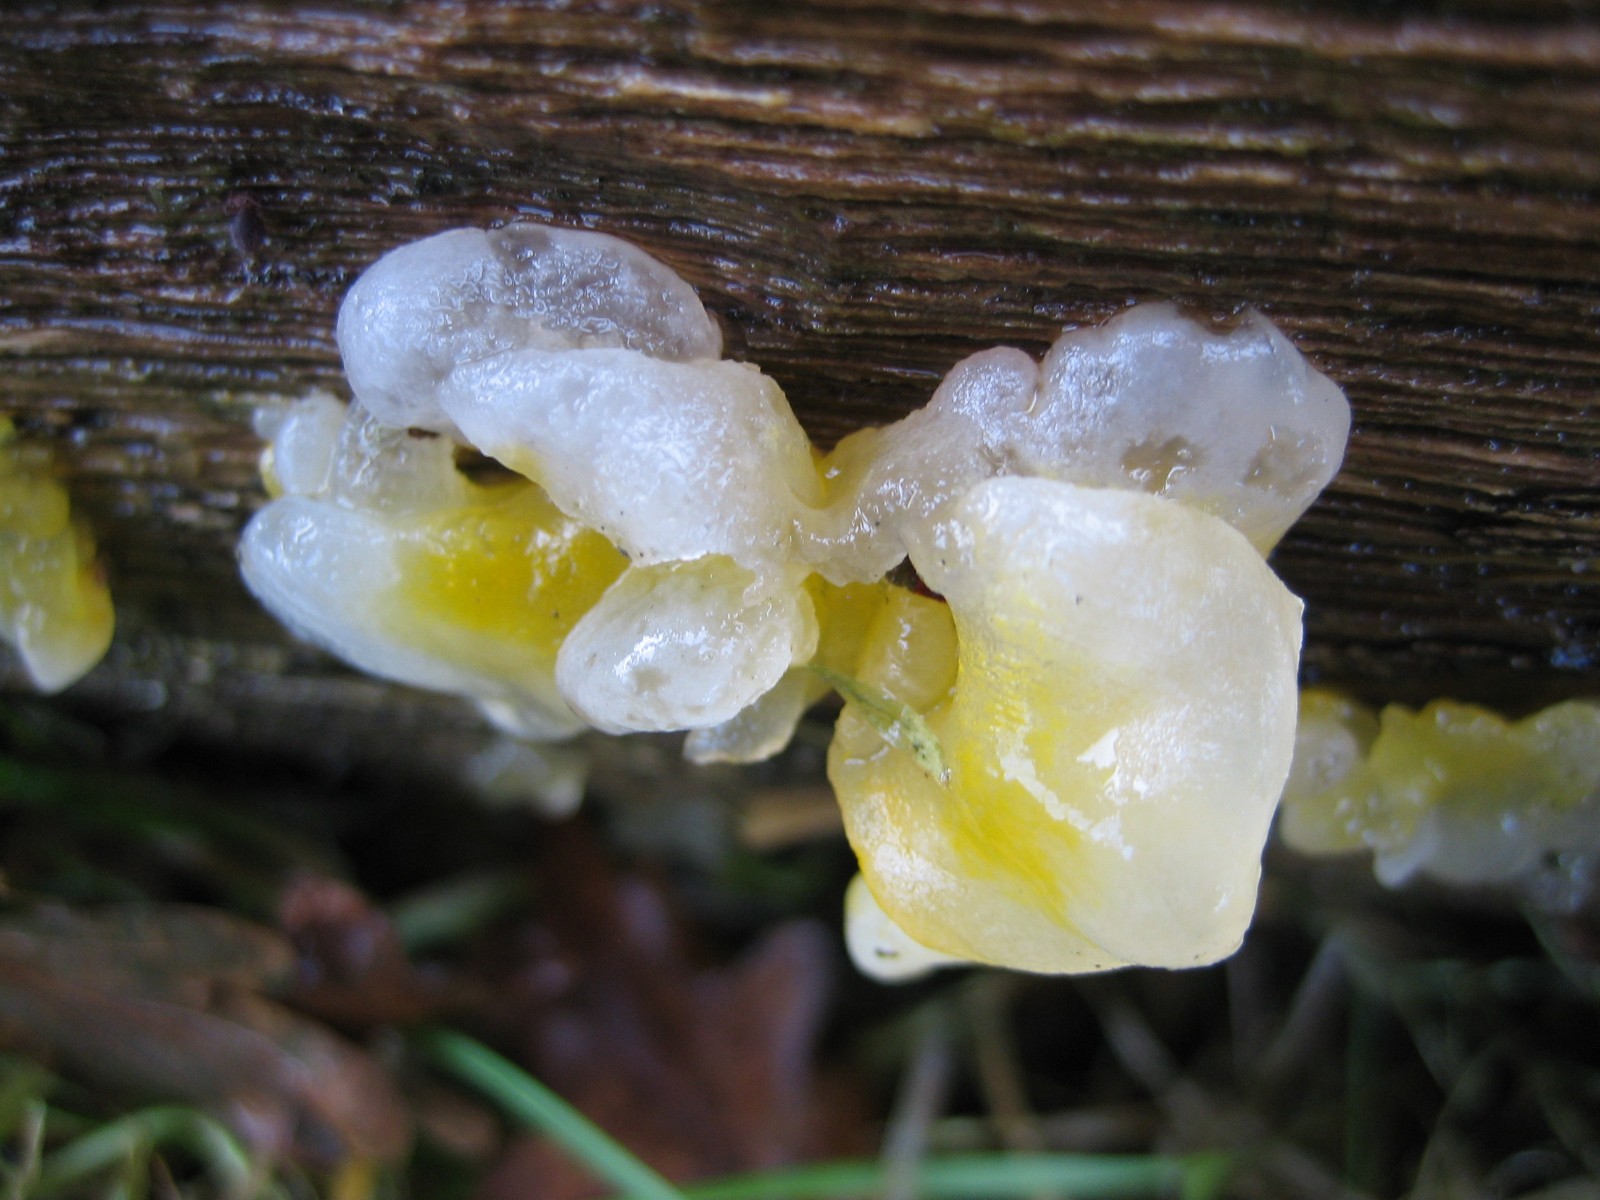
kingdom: Fungi
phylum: Basidiomycota
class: Tremellomycetes
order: Tremellales
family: Tremellaceae
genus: Tremella
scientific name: Tremella mesenterica
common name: gul bævresvamp
